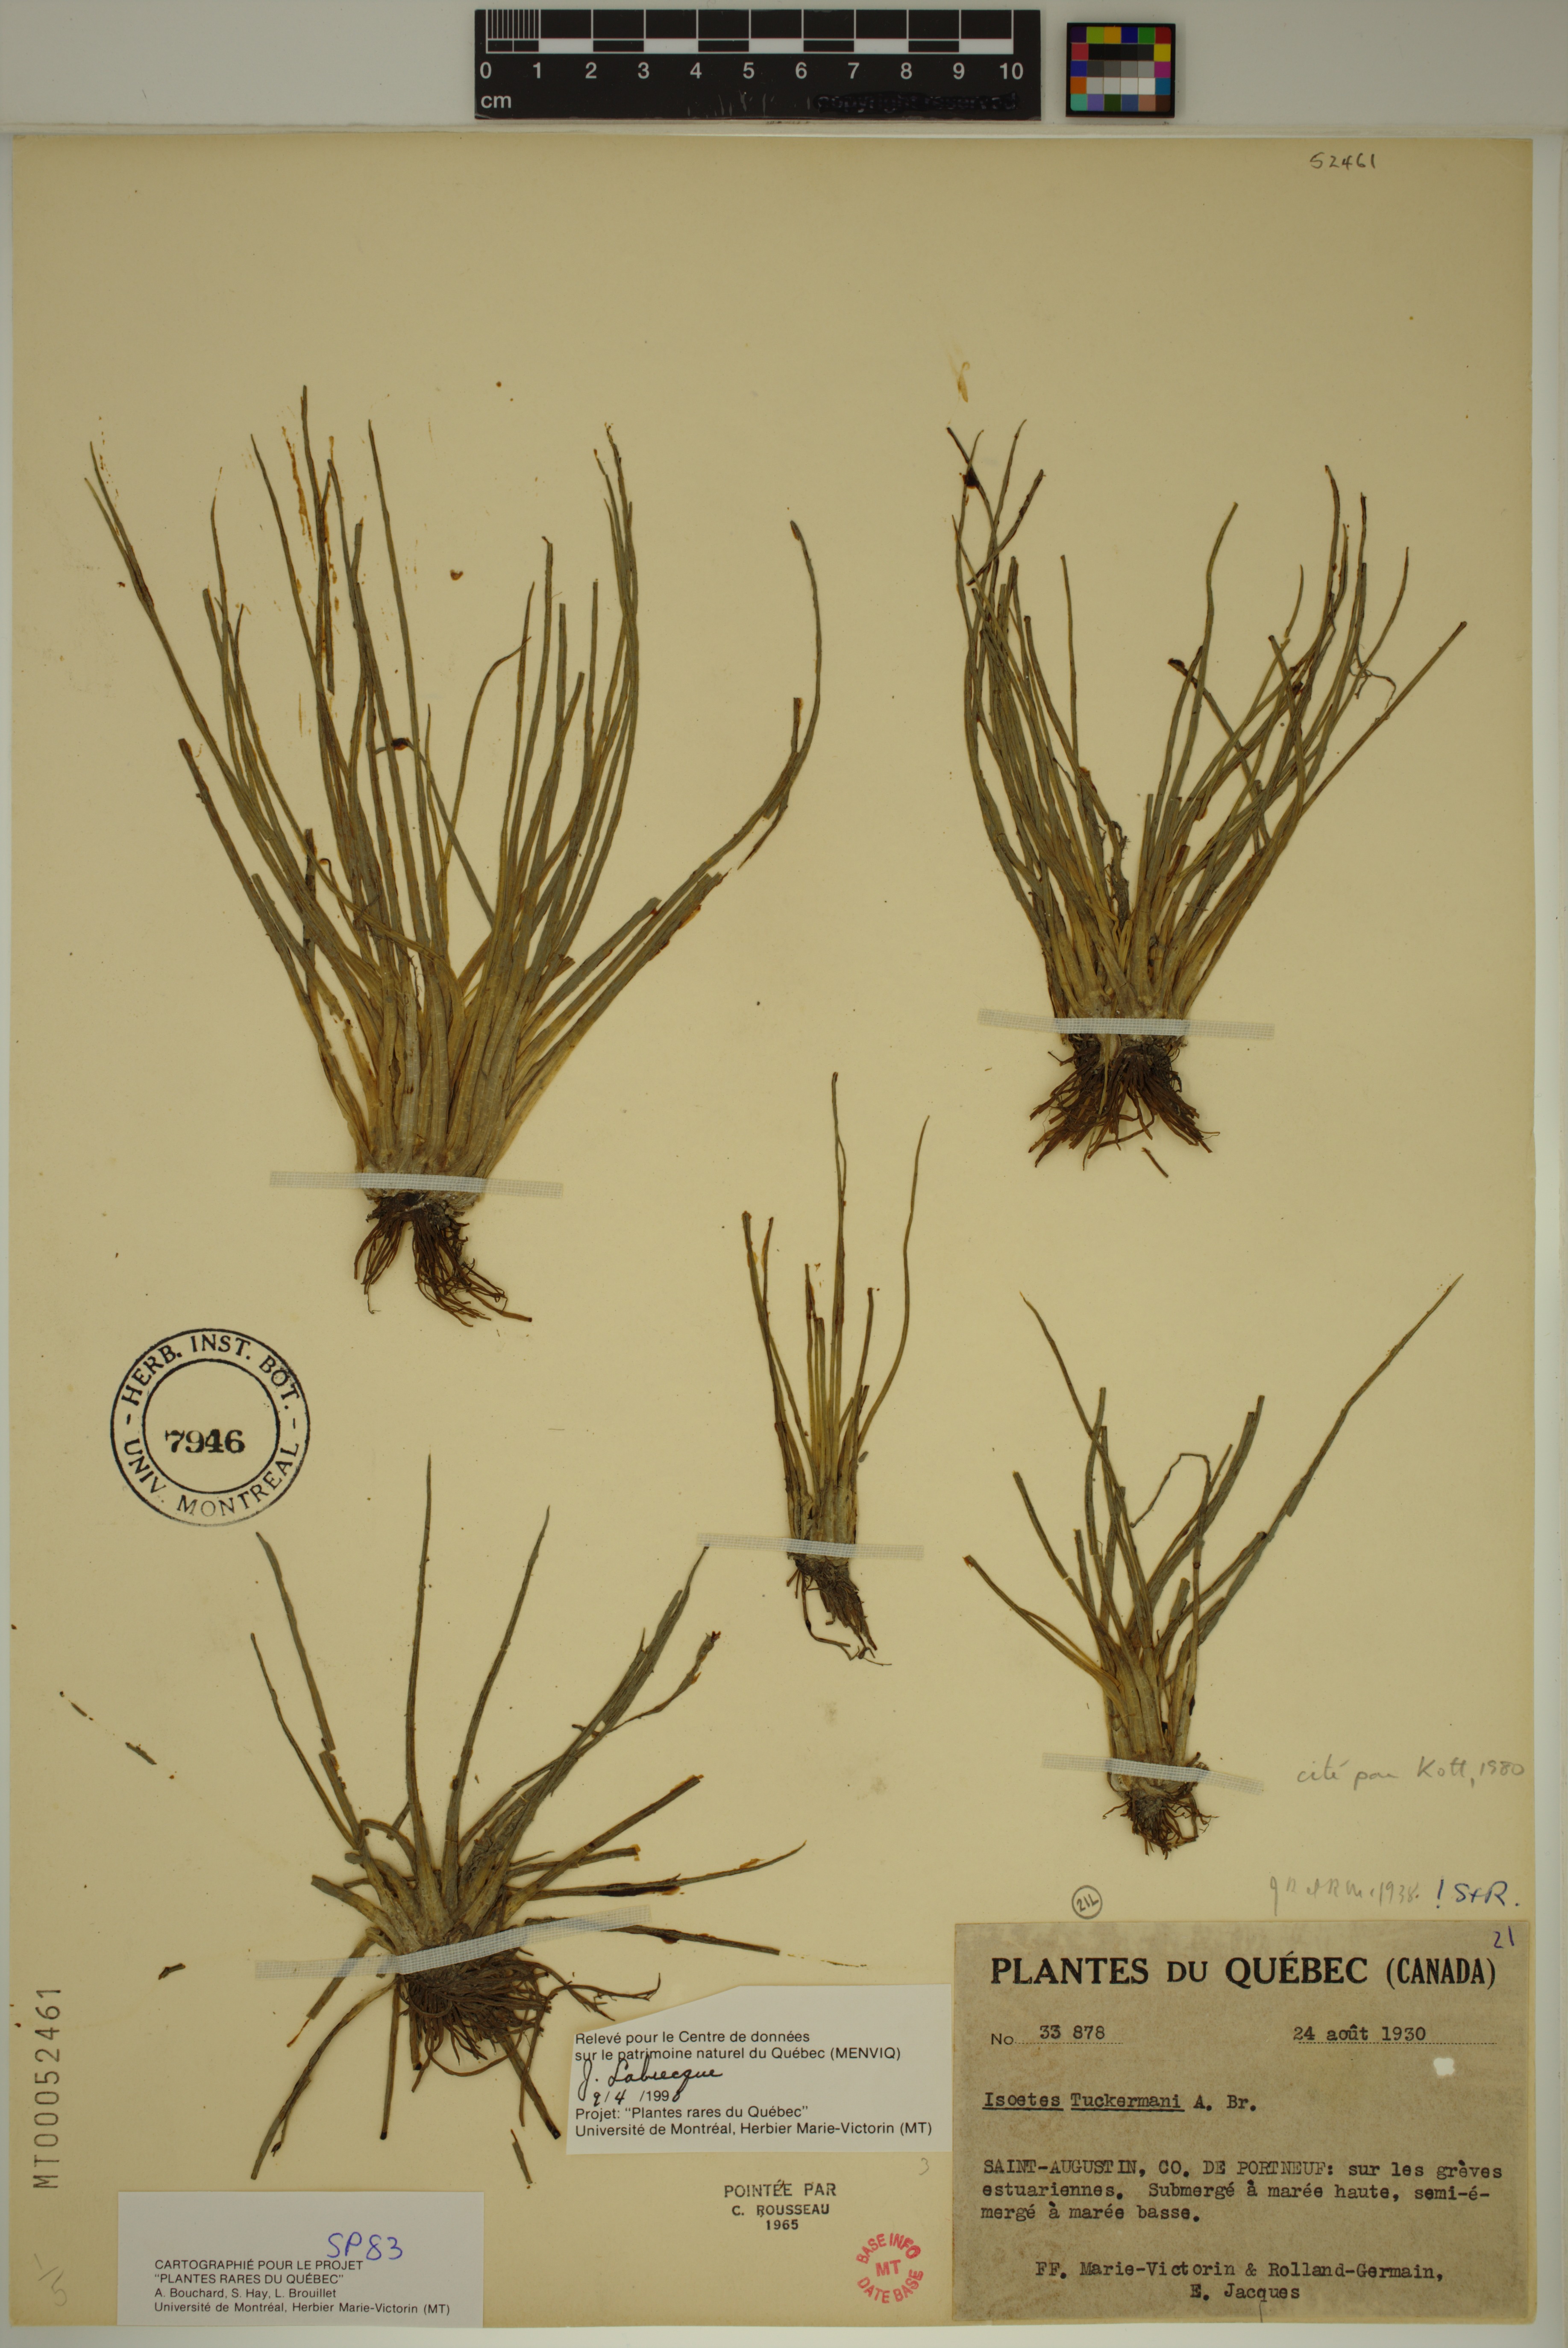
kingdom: Plantae
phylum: Tracheophyta
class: Lycopodiopsida
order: Isoetales
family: Isoetaceae
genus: Isoetes
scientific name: Isoetes laurentiana
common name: St. lawrence quillwort
